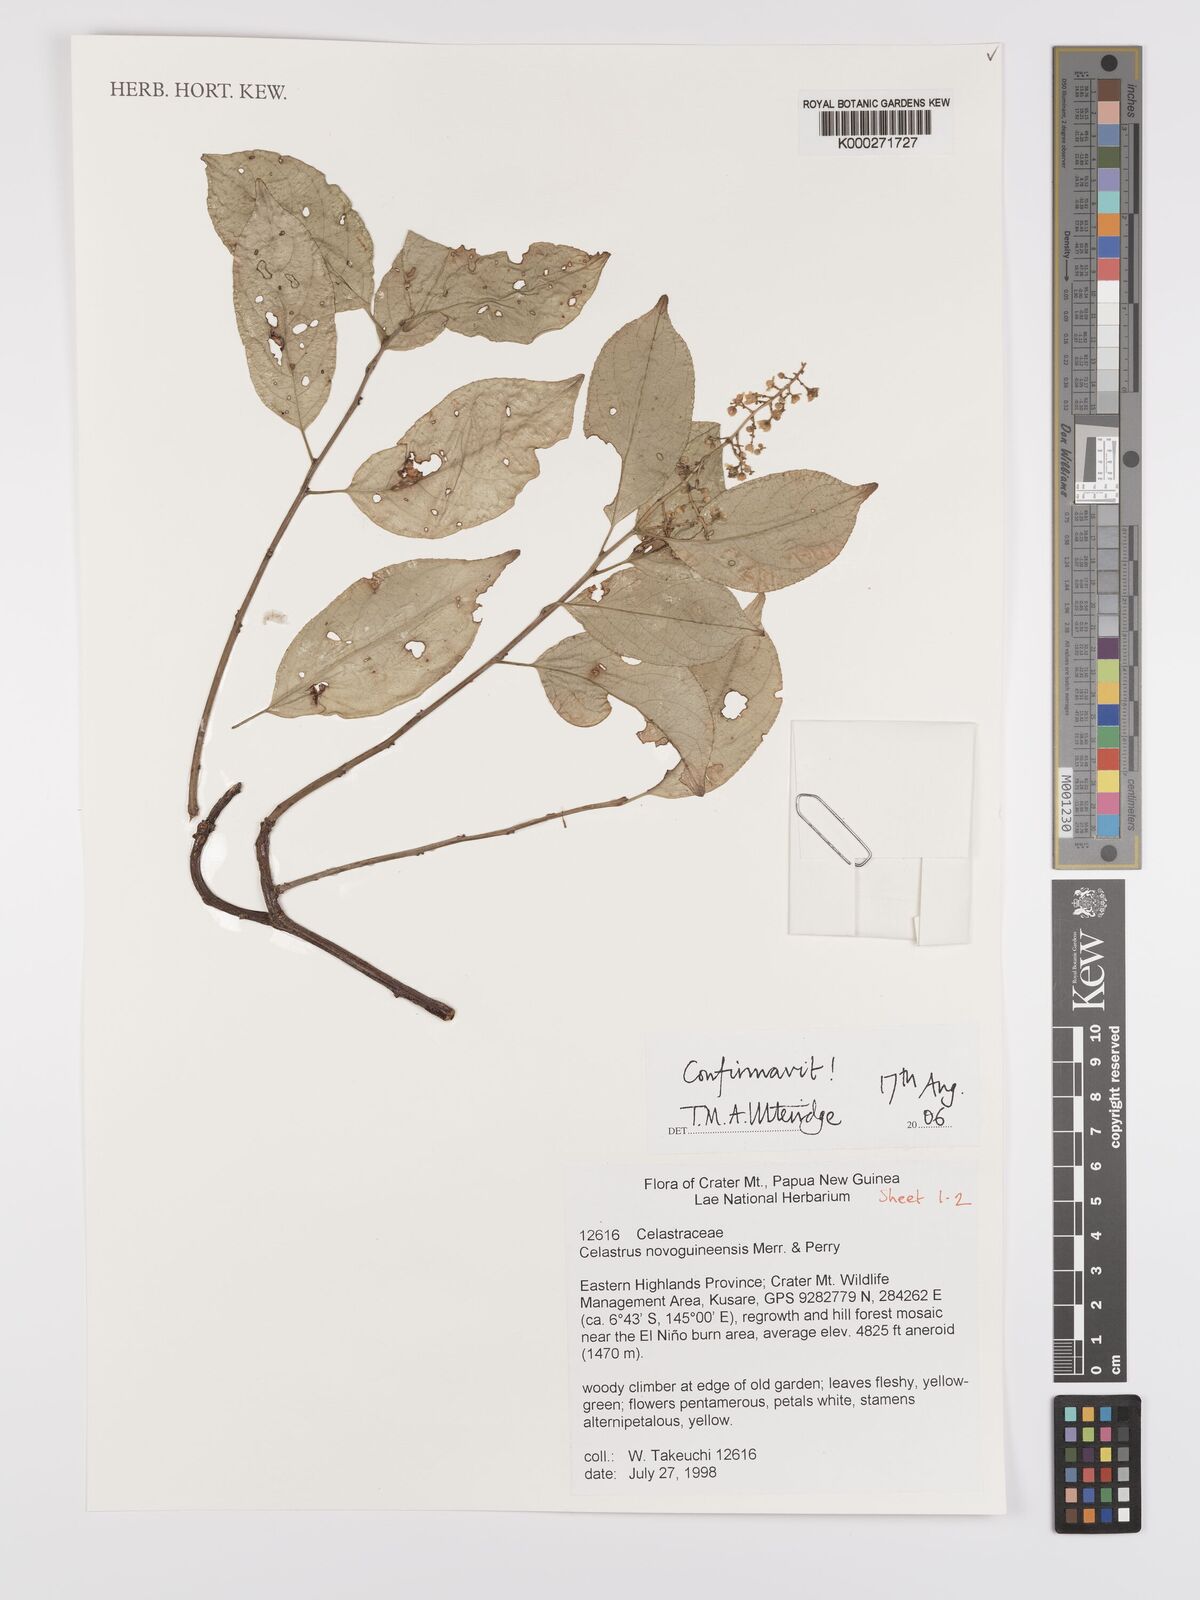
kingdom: Plantae
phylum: Tracheophyta
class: Magnoliopsida
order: Celastrales
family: Celastraceae
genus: Celastrus
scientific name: Celastrus novoguineensis
